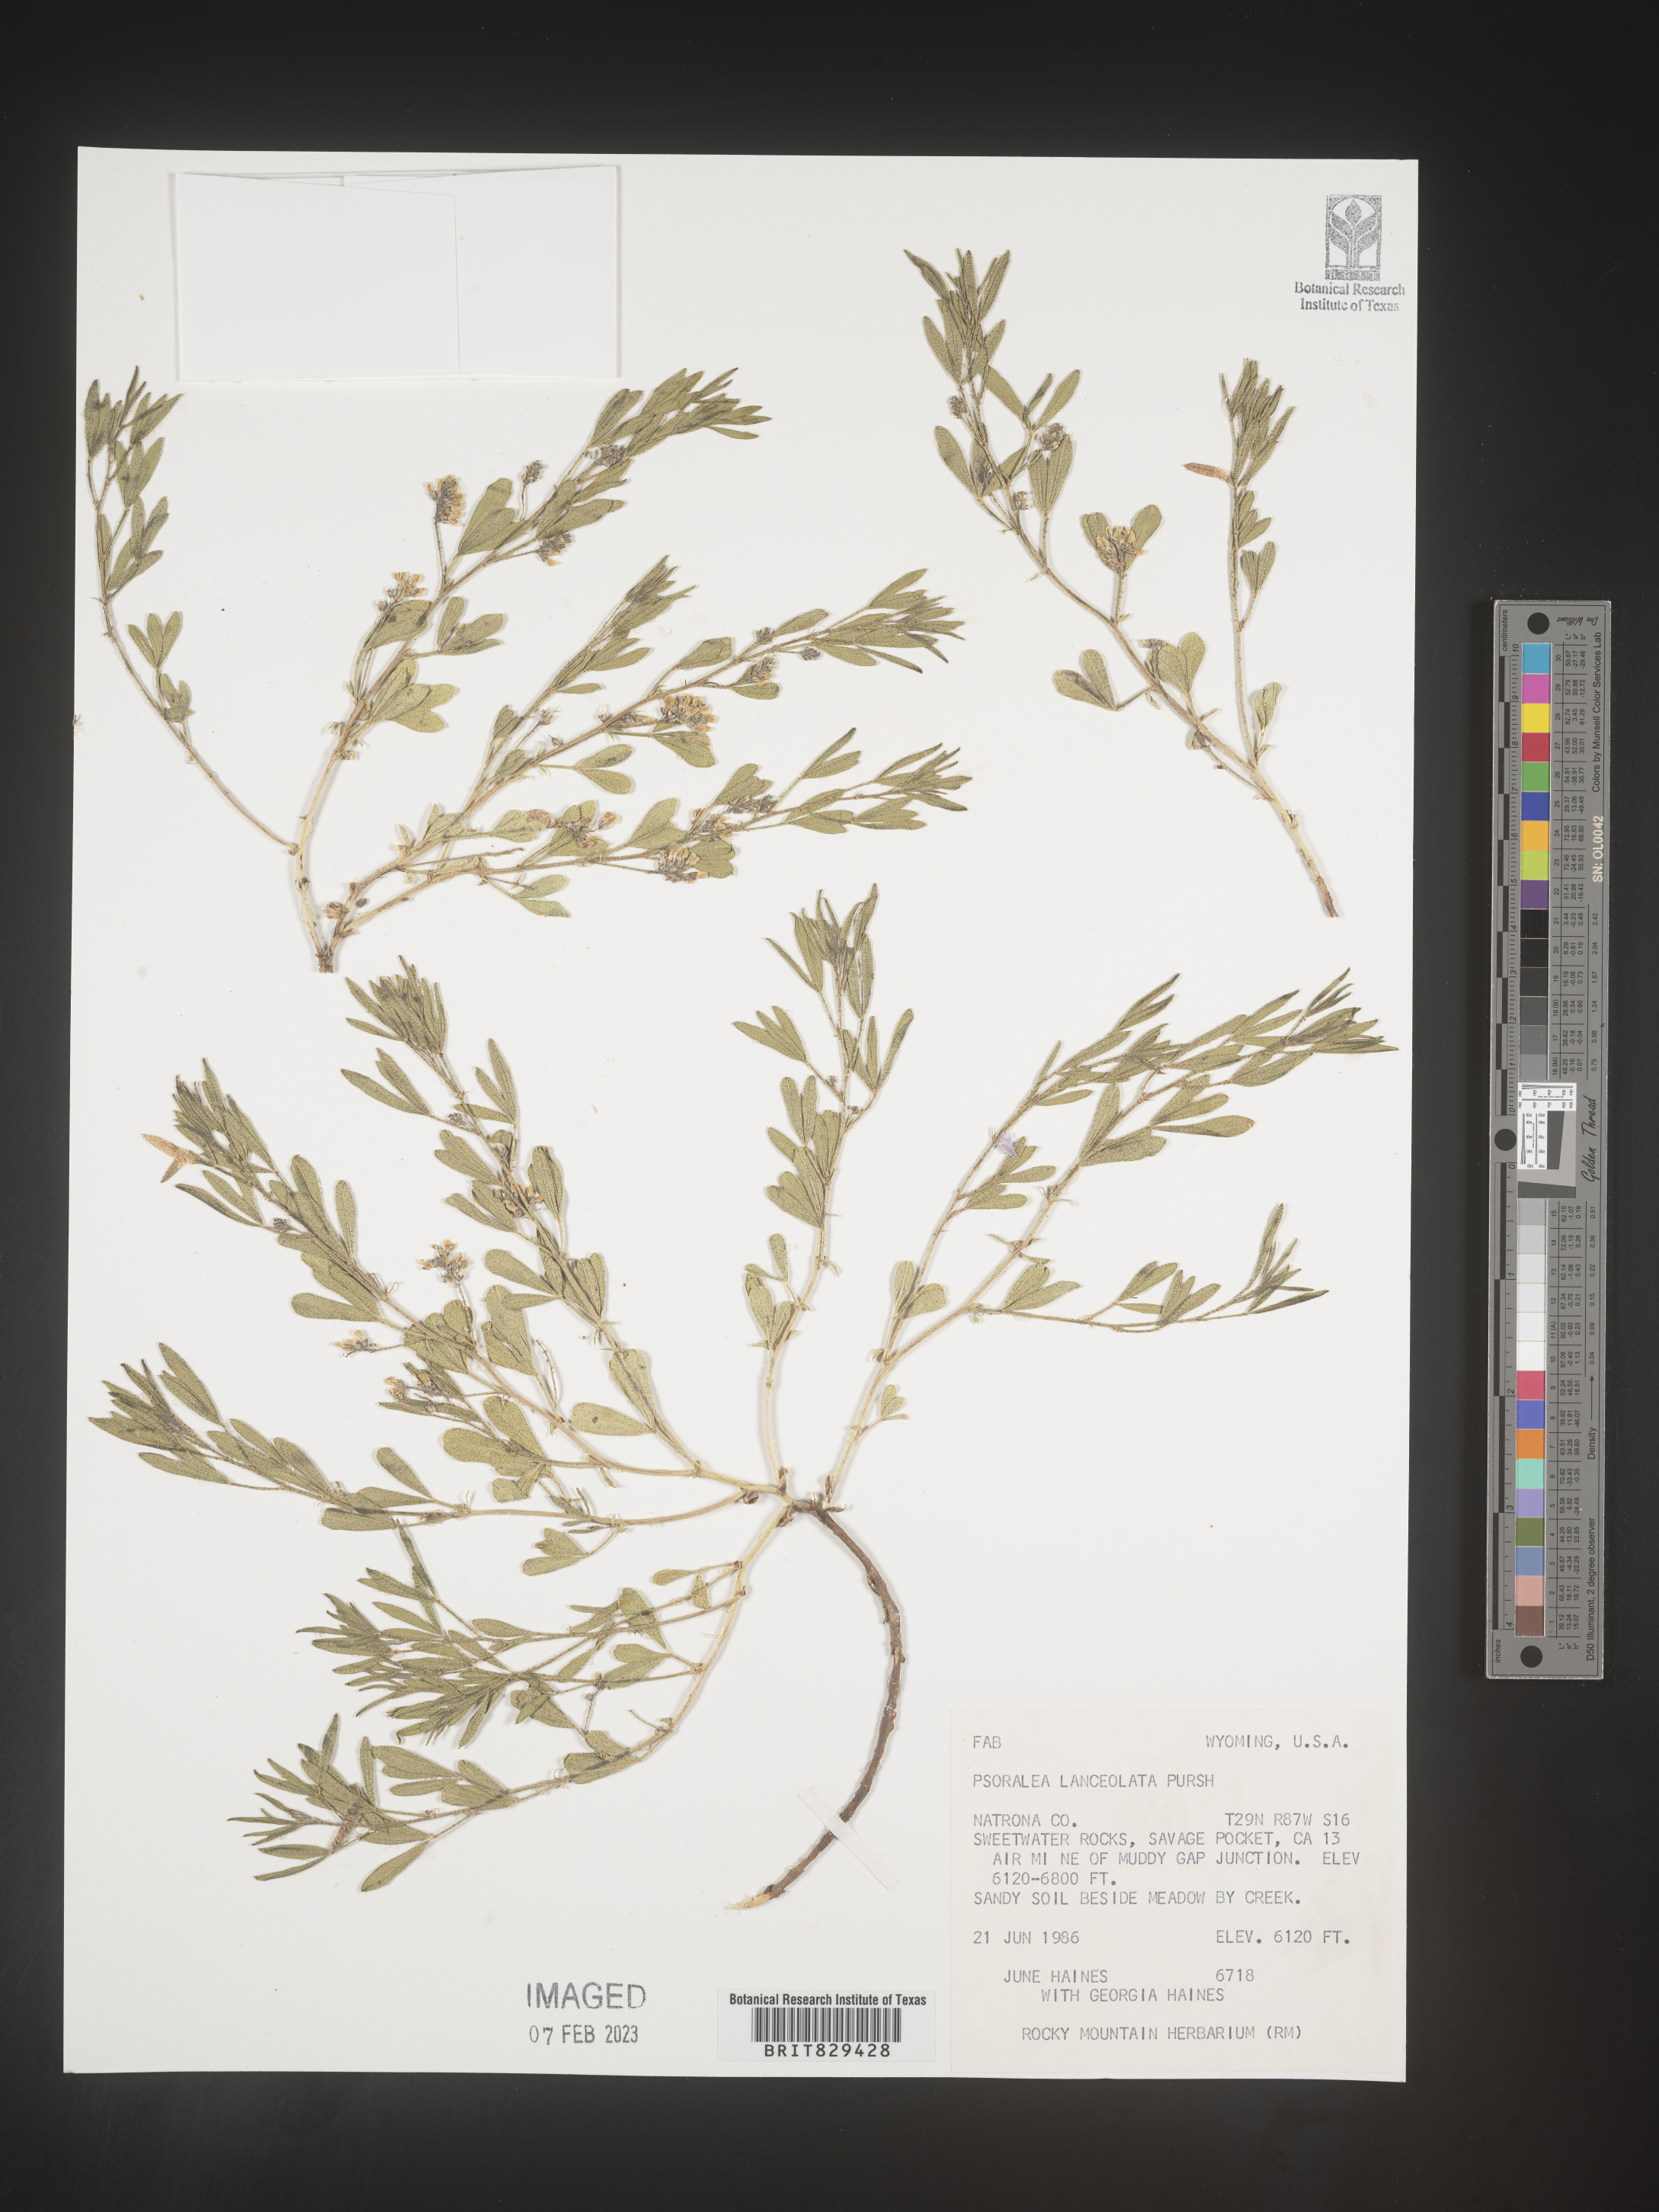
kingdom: Plantae
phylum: Tracheophyta
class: Magnoliopsida
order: Fabales
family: Fabaceae
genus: Psoralea
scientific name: Psoralea
